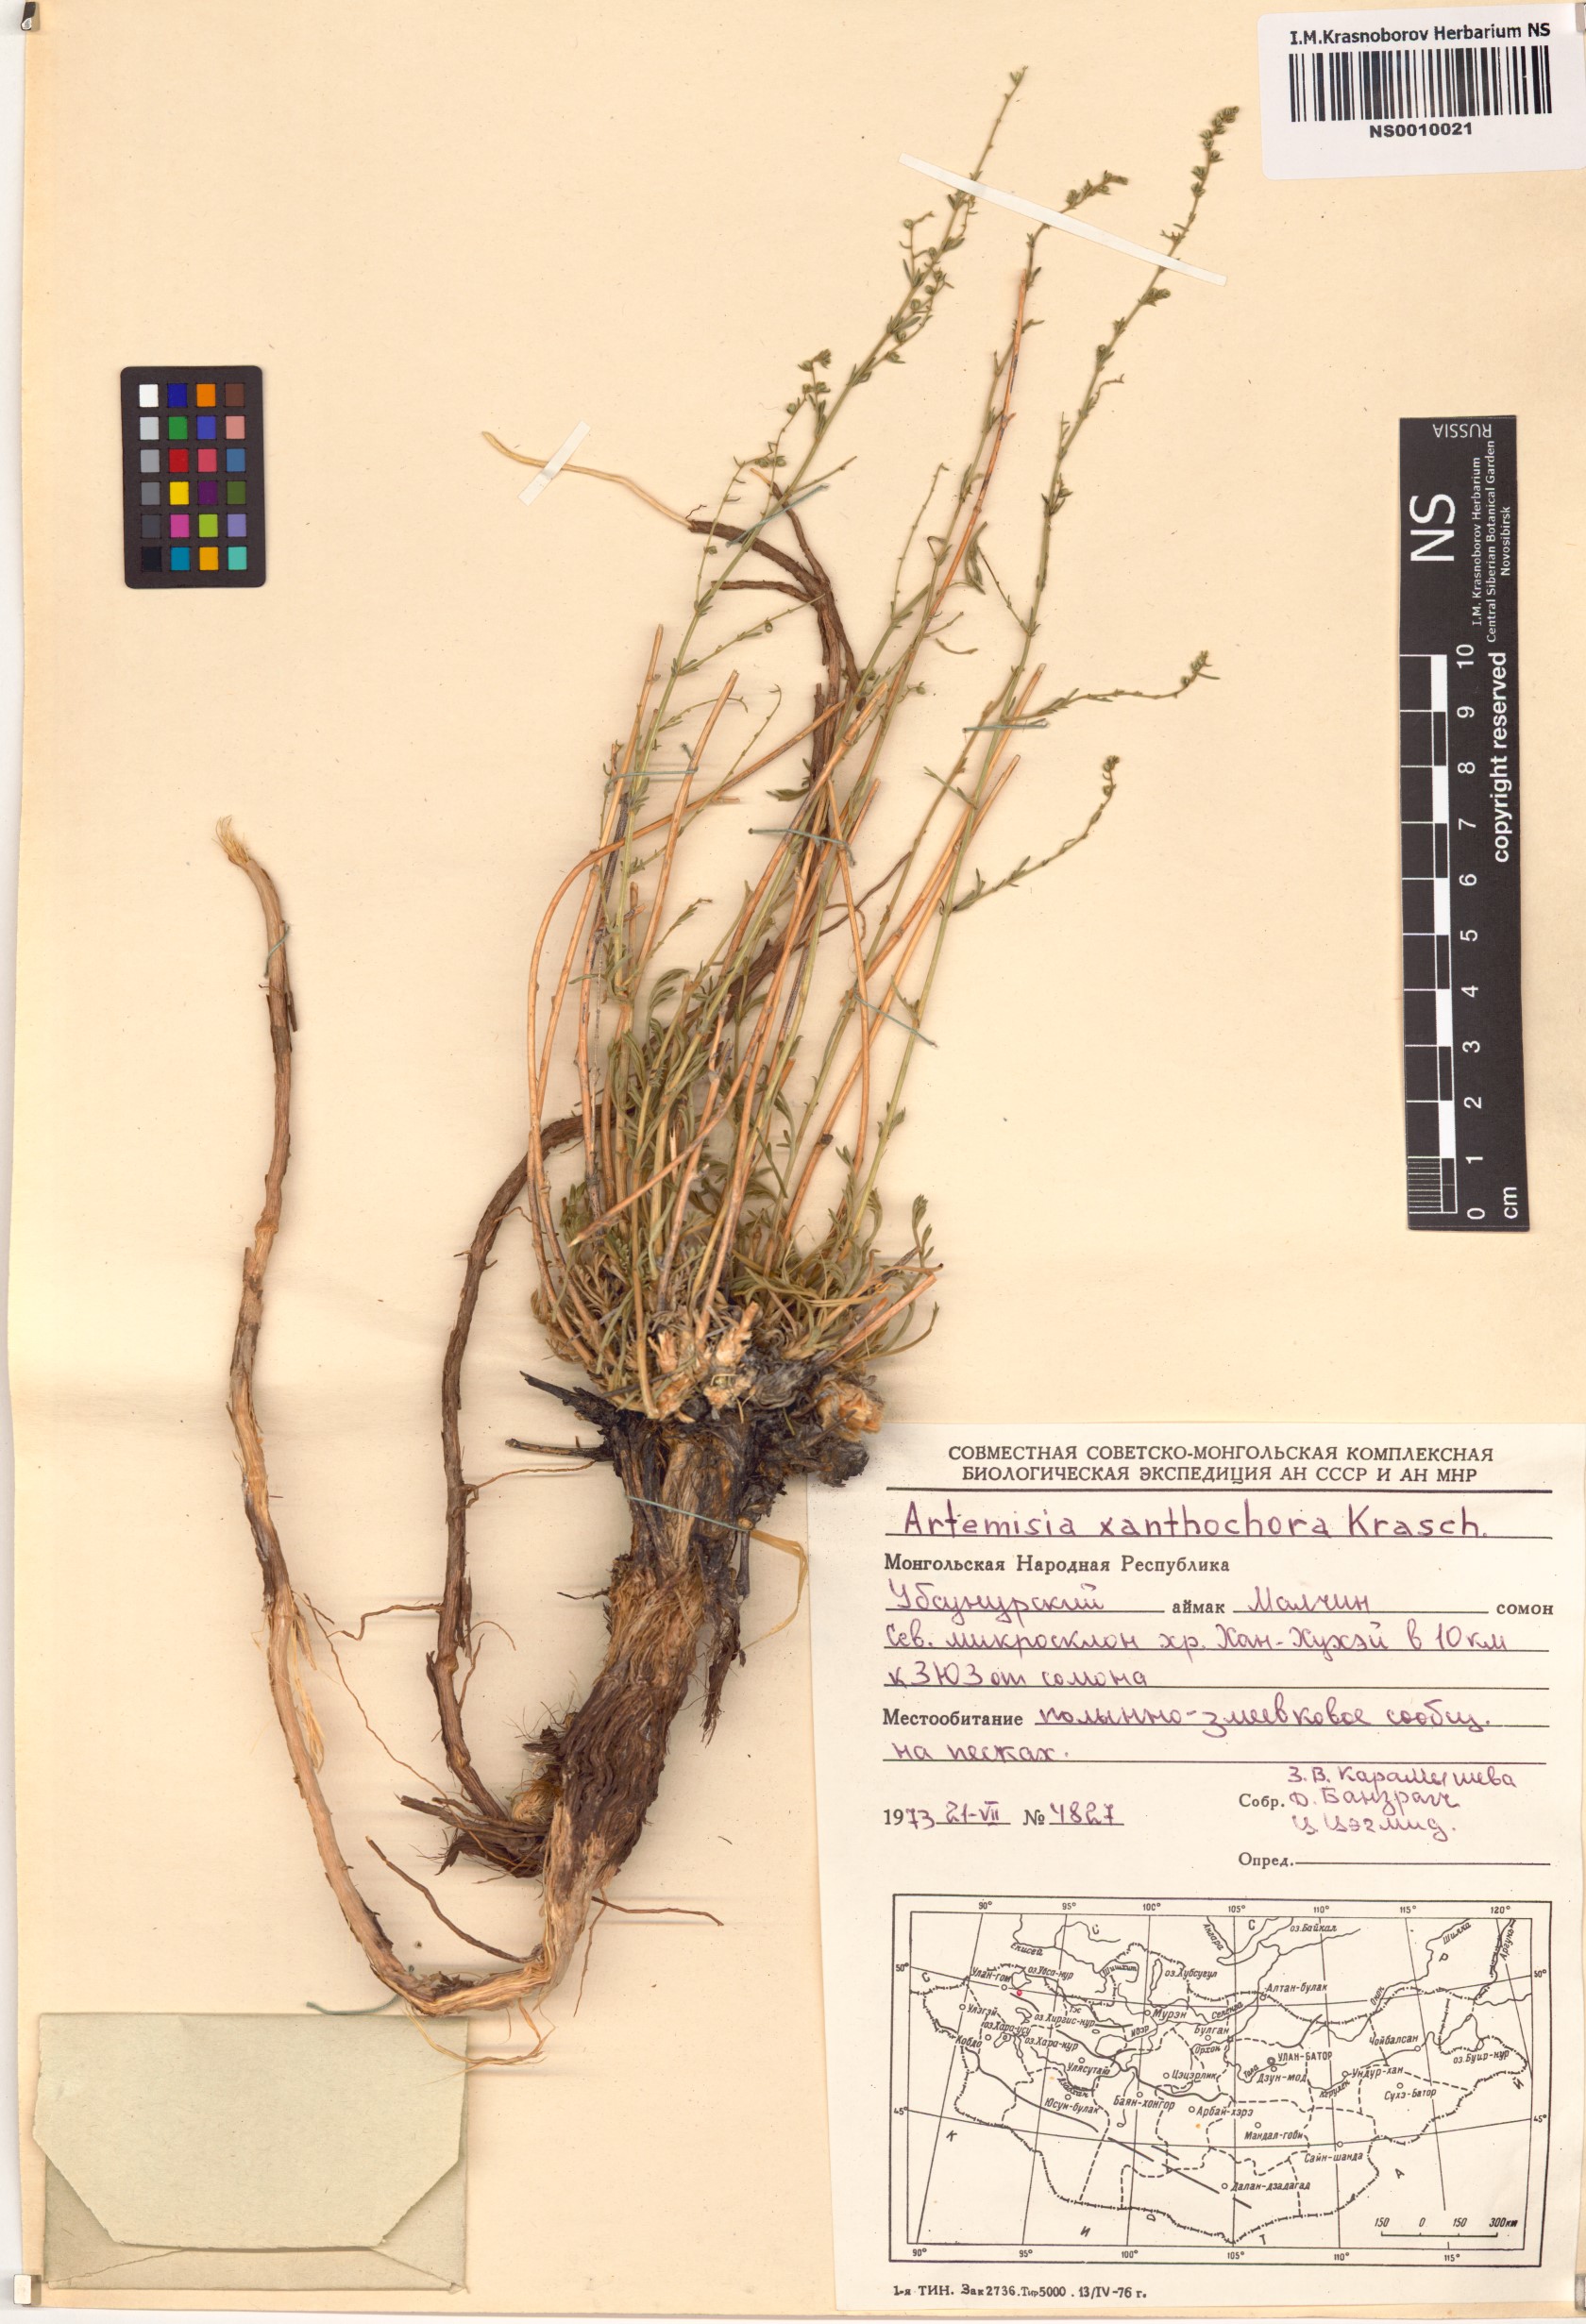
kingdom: Plantae
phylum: Tracheophyta
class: Magnoliopsida
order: Asterales
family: Asteraceae
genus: Artemisia
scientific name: Artemisia xanthochroa
